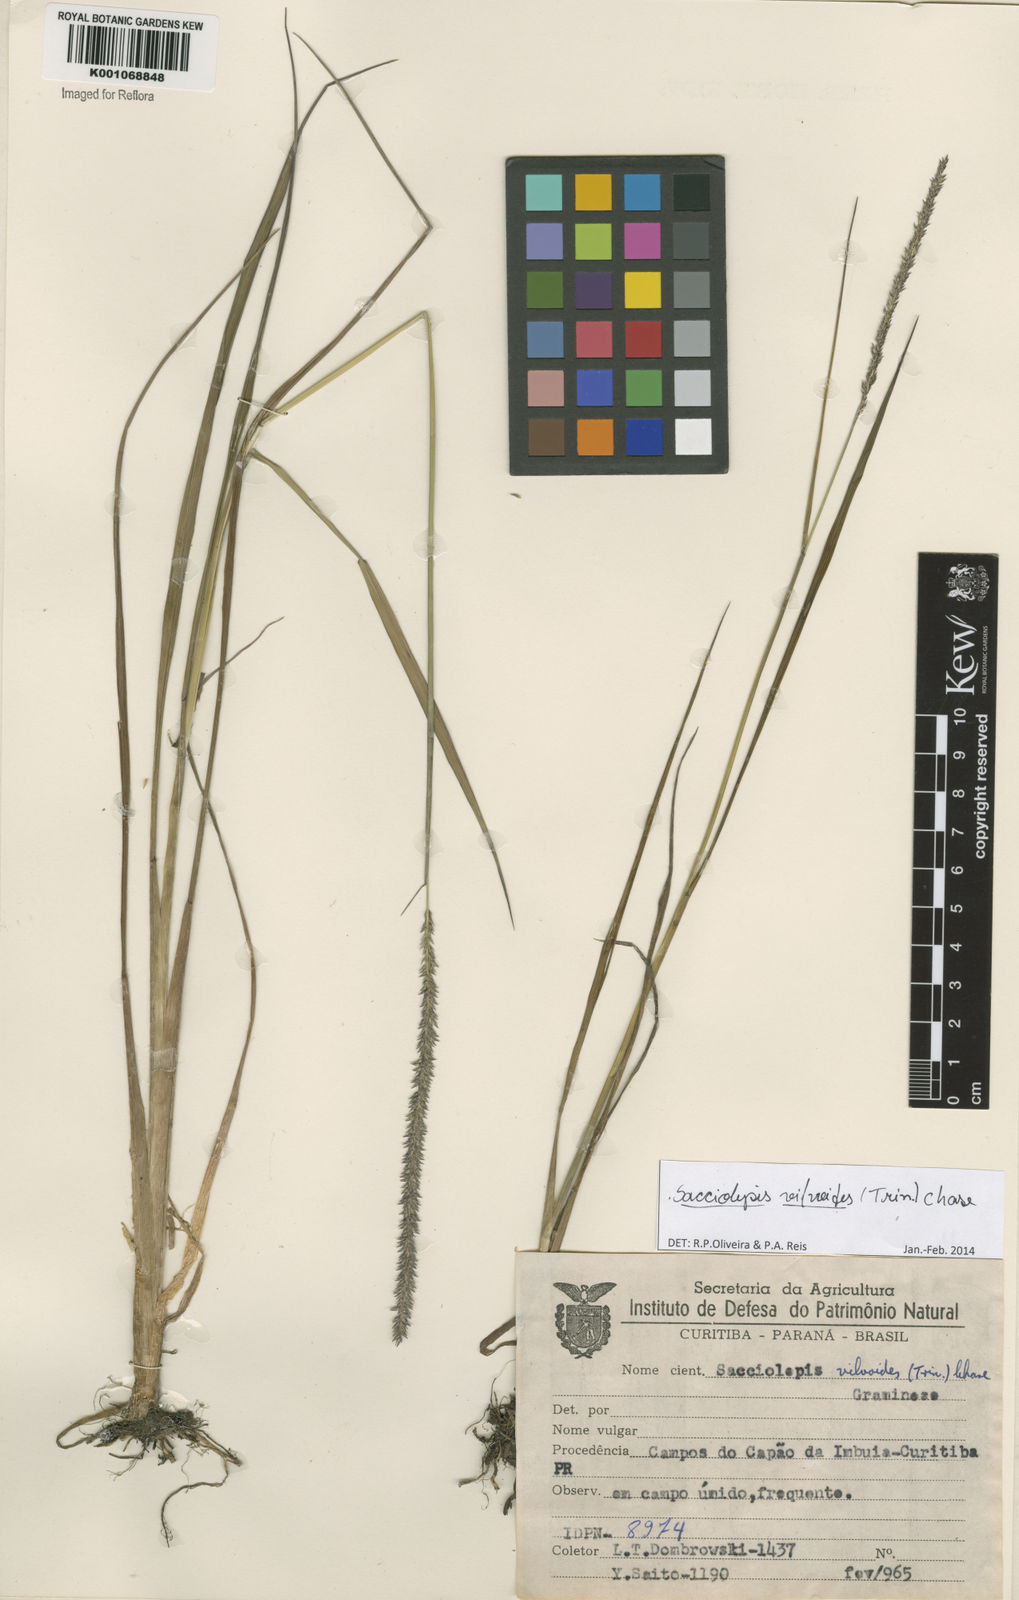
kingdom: Plantae
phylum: Tracheophyta
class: Liliopsida
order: Poales
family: Poaceae
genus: Sacciolepis
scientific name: Sacciolepis vilvoides
